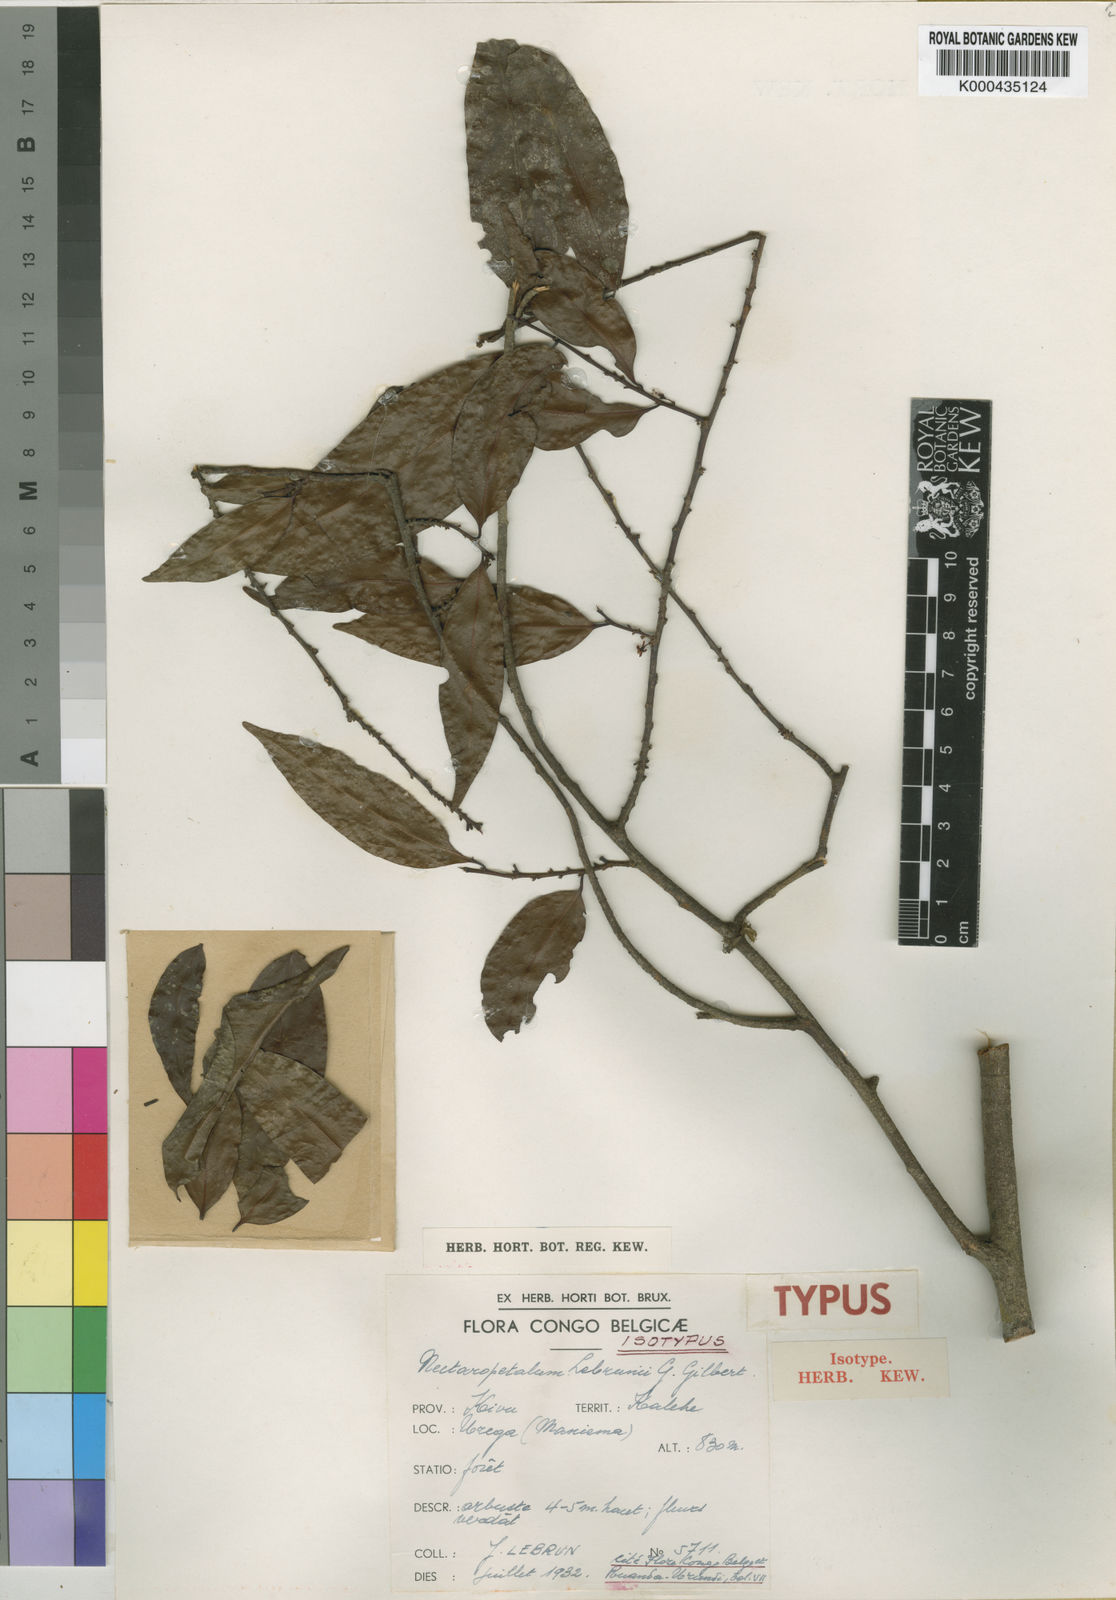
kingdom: Plantae
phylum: Tracheophyta
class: Magnoliopsida
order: Malpighiales
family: Erythroxylaceae
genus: Nectaropetalum
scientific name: Nectaropetalum lebrunii
